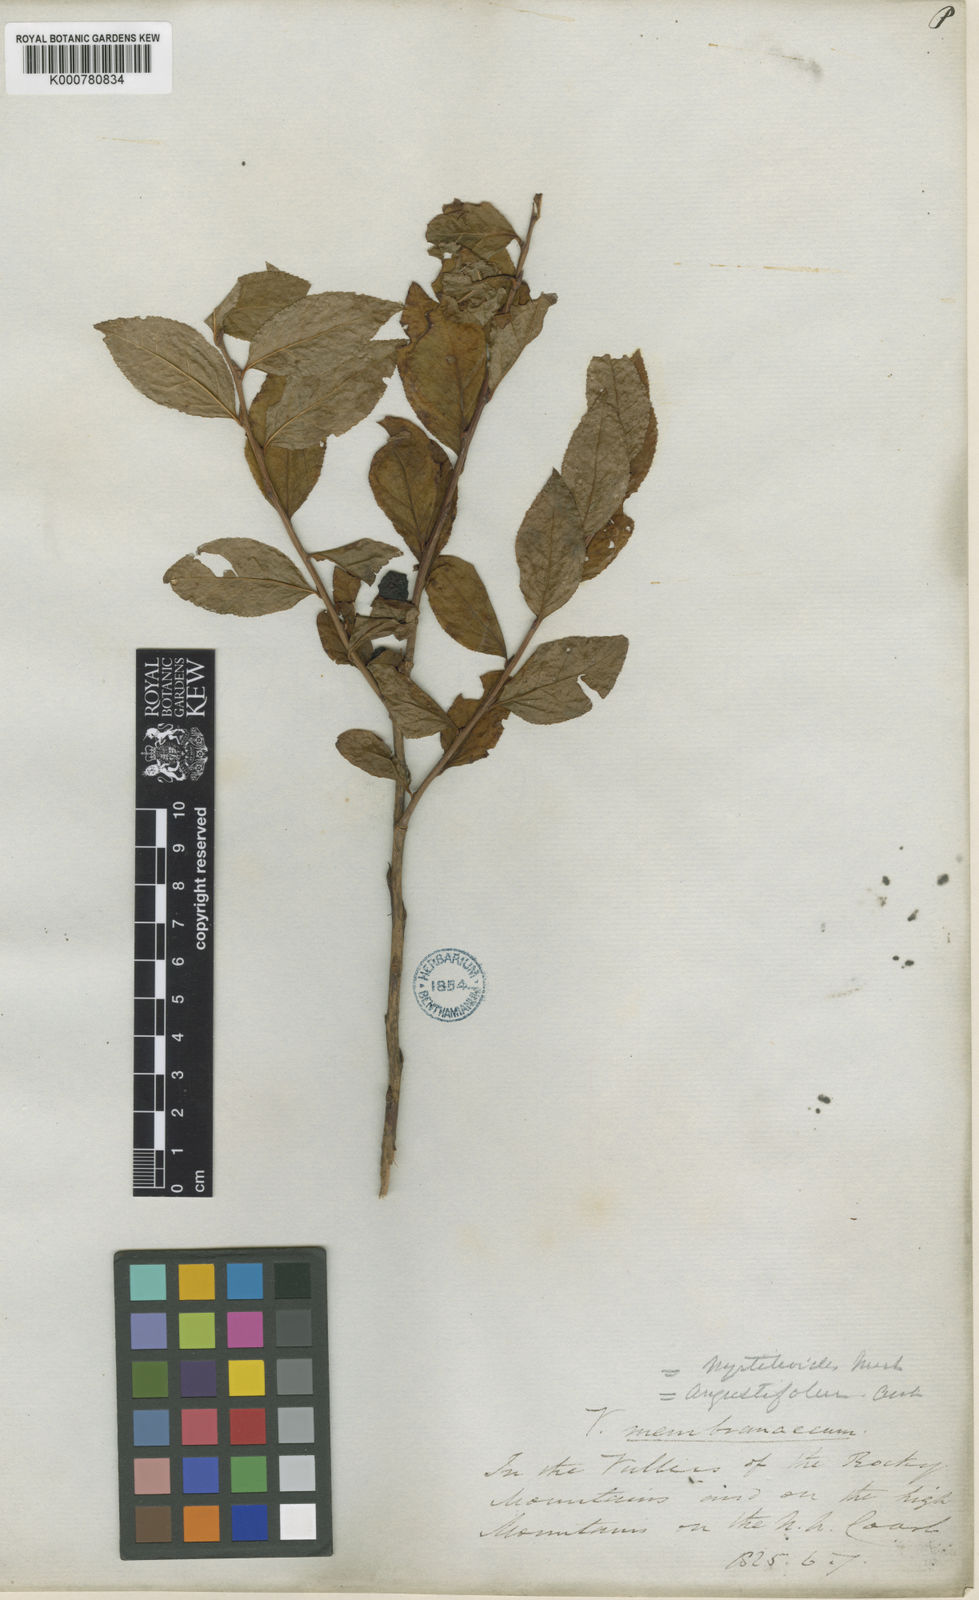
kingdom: Plantae
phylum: Tracheophyta
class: Magnoliopsida
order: Ericales
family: Ericaceae
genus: Vaccinium
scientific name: Vaccinium
